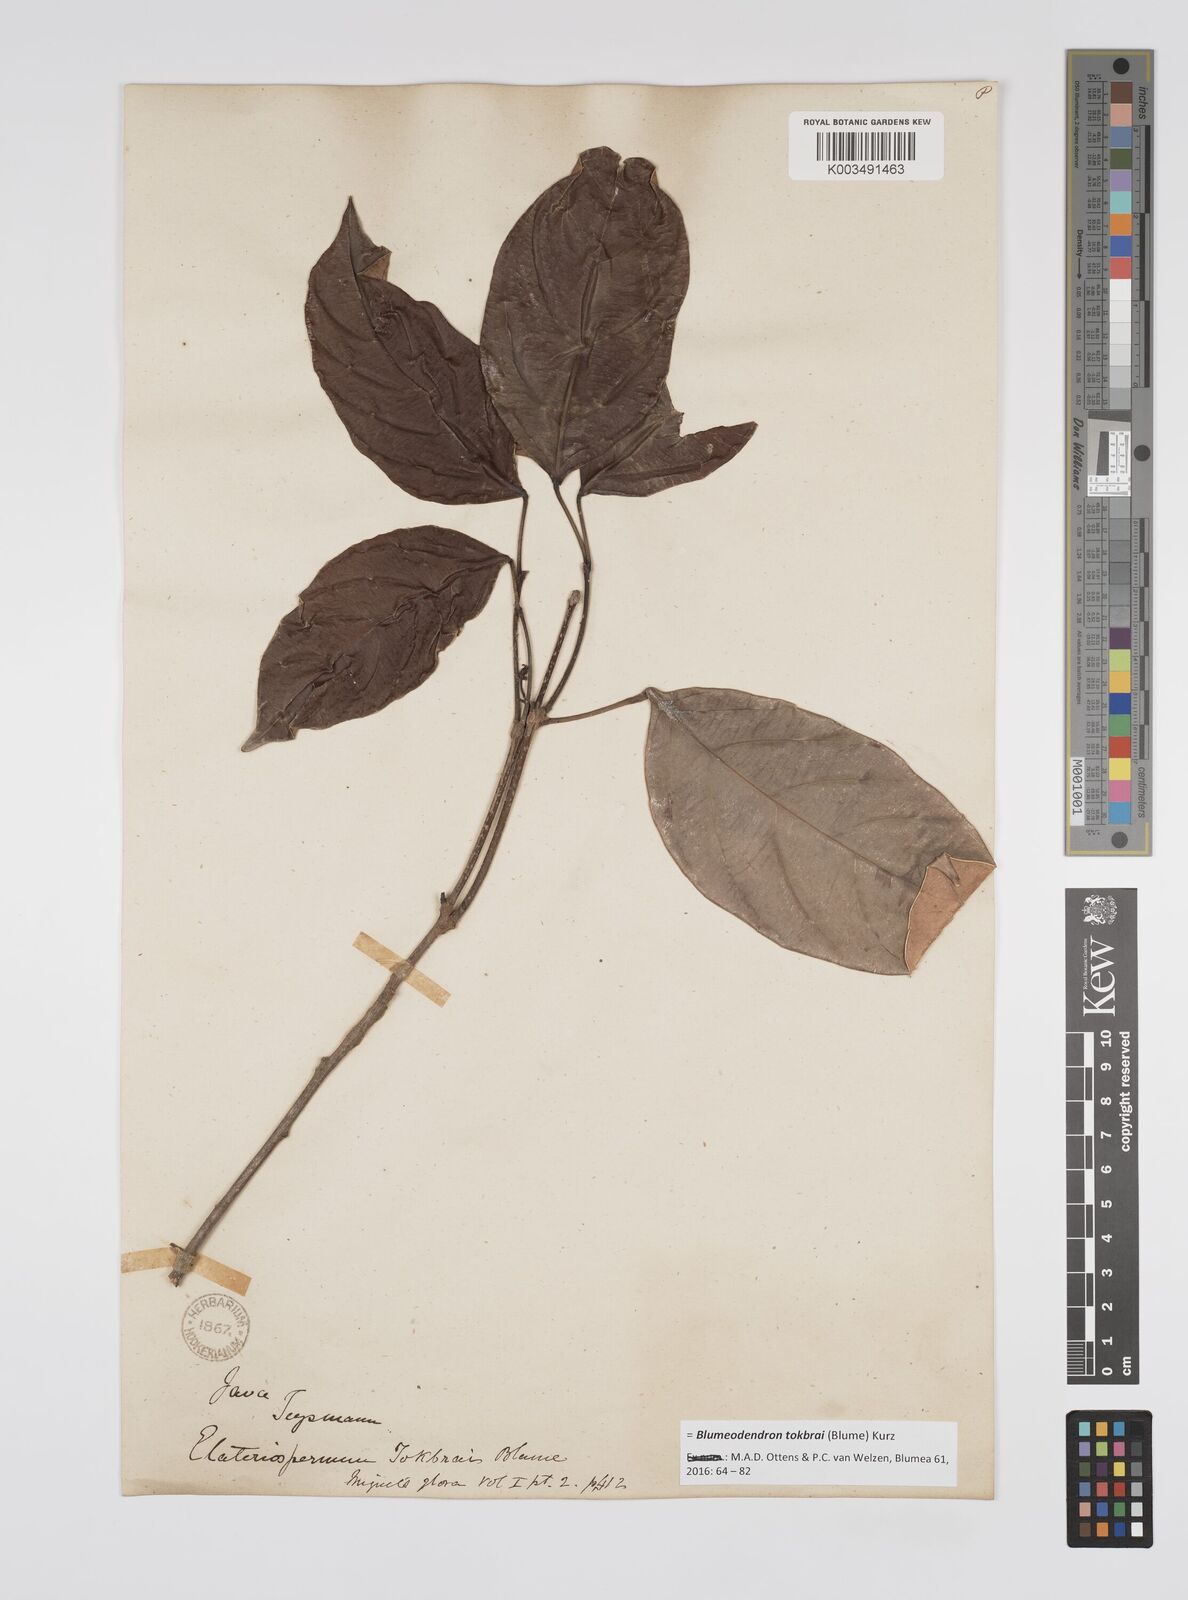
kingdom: Plantae
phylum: Tracheophyta
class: Magnoliopsida
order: Malpighiales
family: Euphorbiaceae
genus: Blumeodendron
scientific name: Blumeodendron tokbrai
